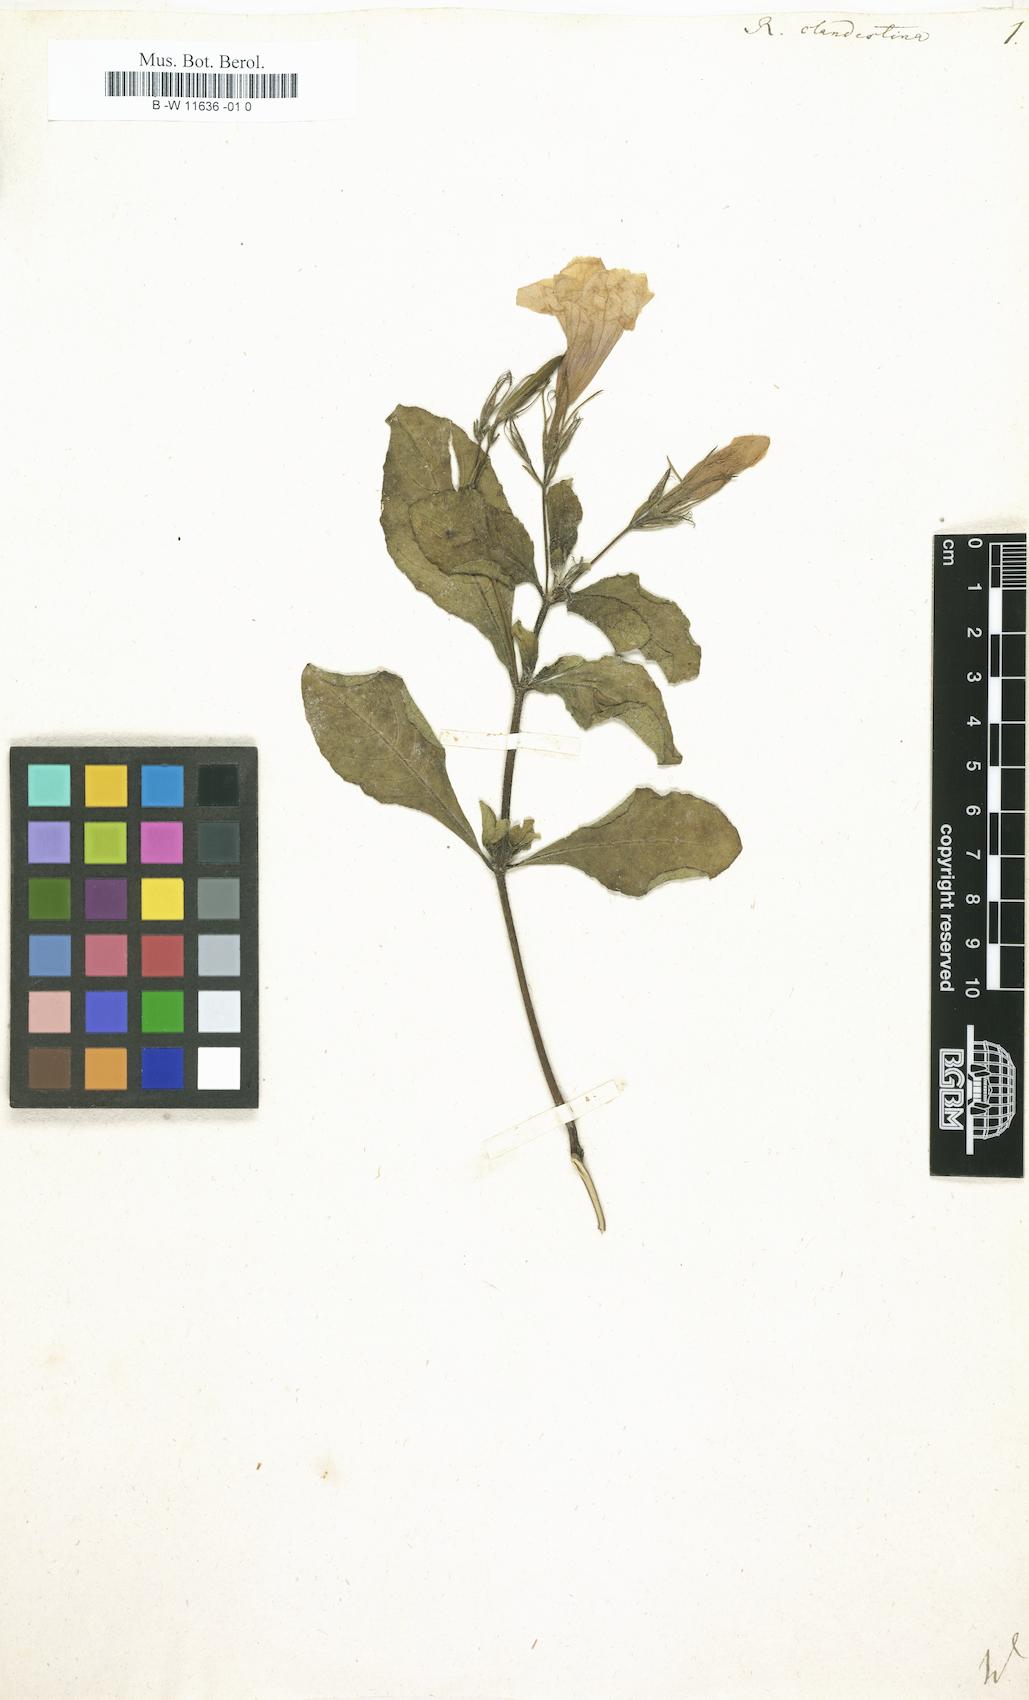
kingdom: Plantae
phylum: Tracheophyta
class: Magnoliopsida
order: Lamiales
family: Acanthaceae
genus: Ruellia
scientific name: Ruellia tuberosa
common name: Devil's bit
